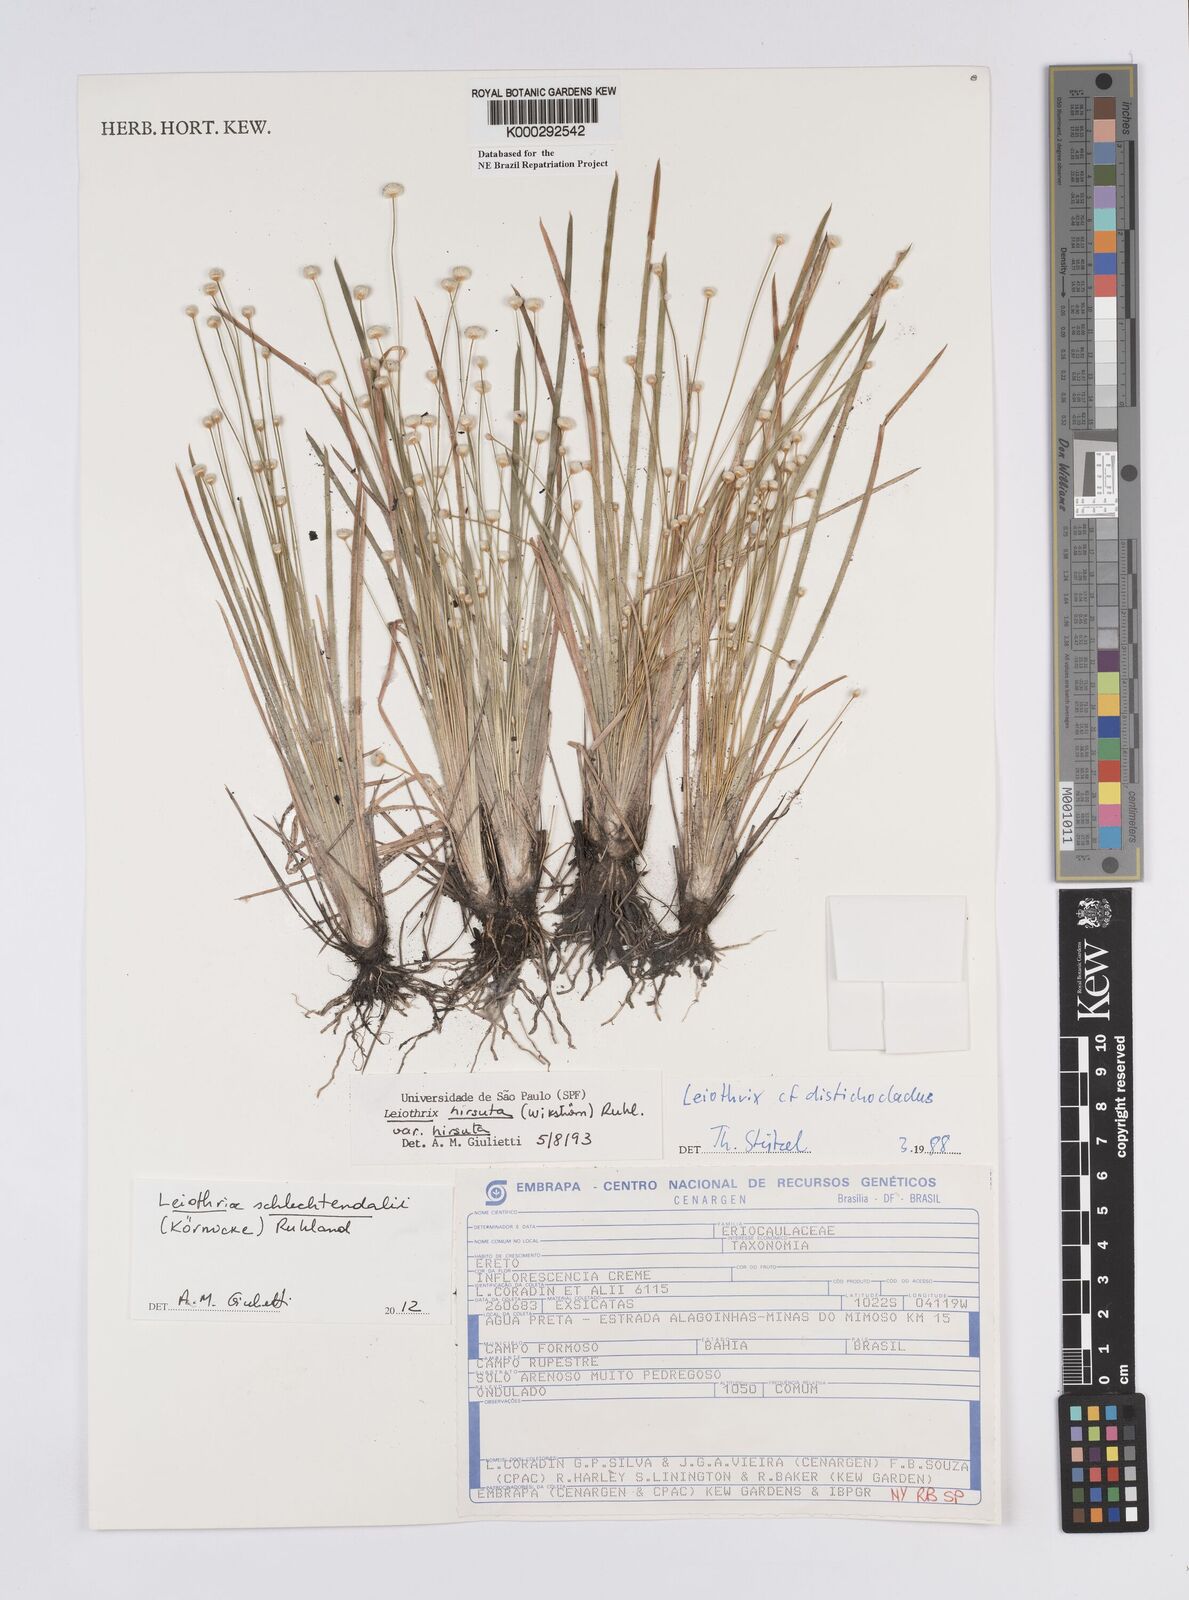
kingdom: Plantae
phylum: Tracheophyta
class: Liliopsida
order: Poales
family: Eriocaulaceae
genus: Leiothrix
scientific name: Leiothrix hirsuta
